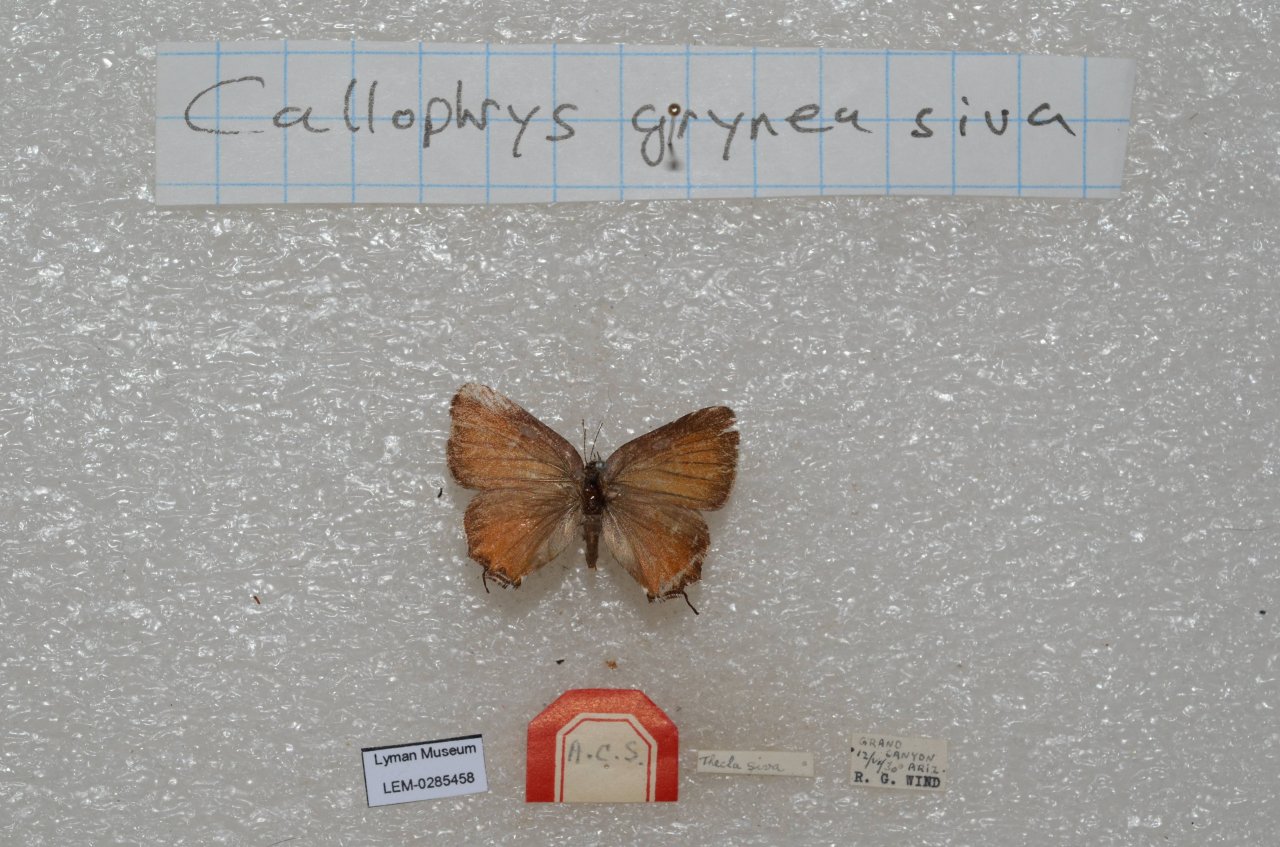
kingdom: Animalia
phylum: Arthropoda
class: Insecta
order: Lepidoptera
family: Lycaenidae
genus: Mitoura
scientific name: Mitoura gryneus
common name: Juniper Hairstreak
